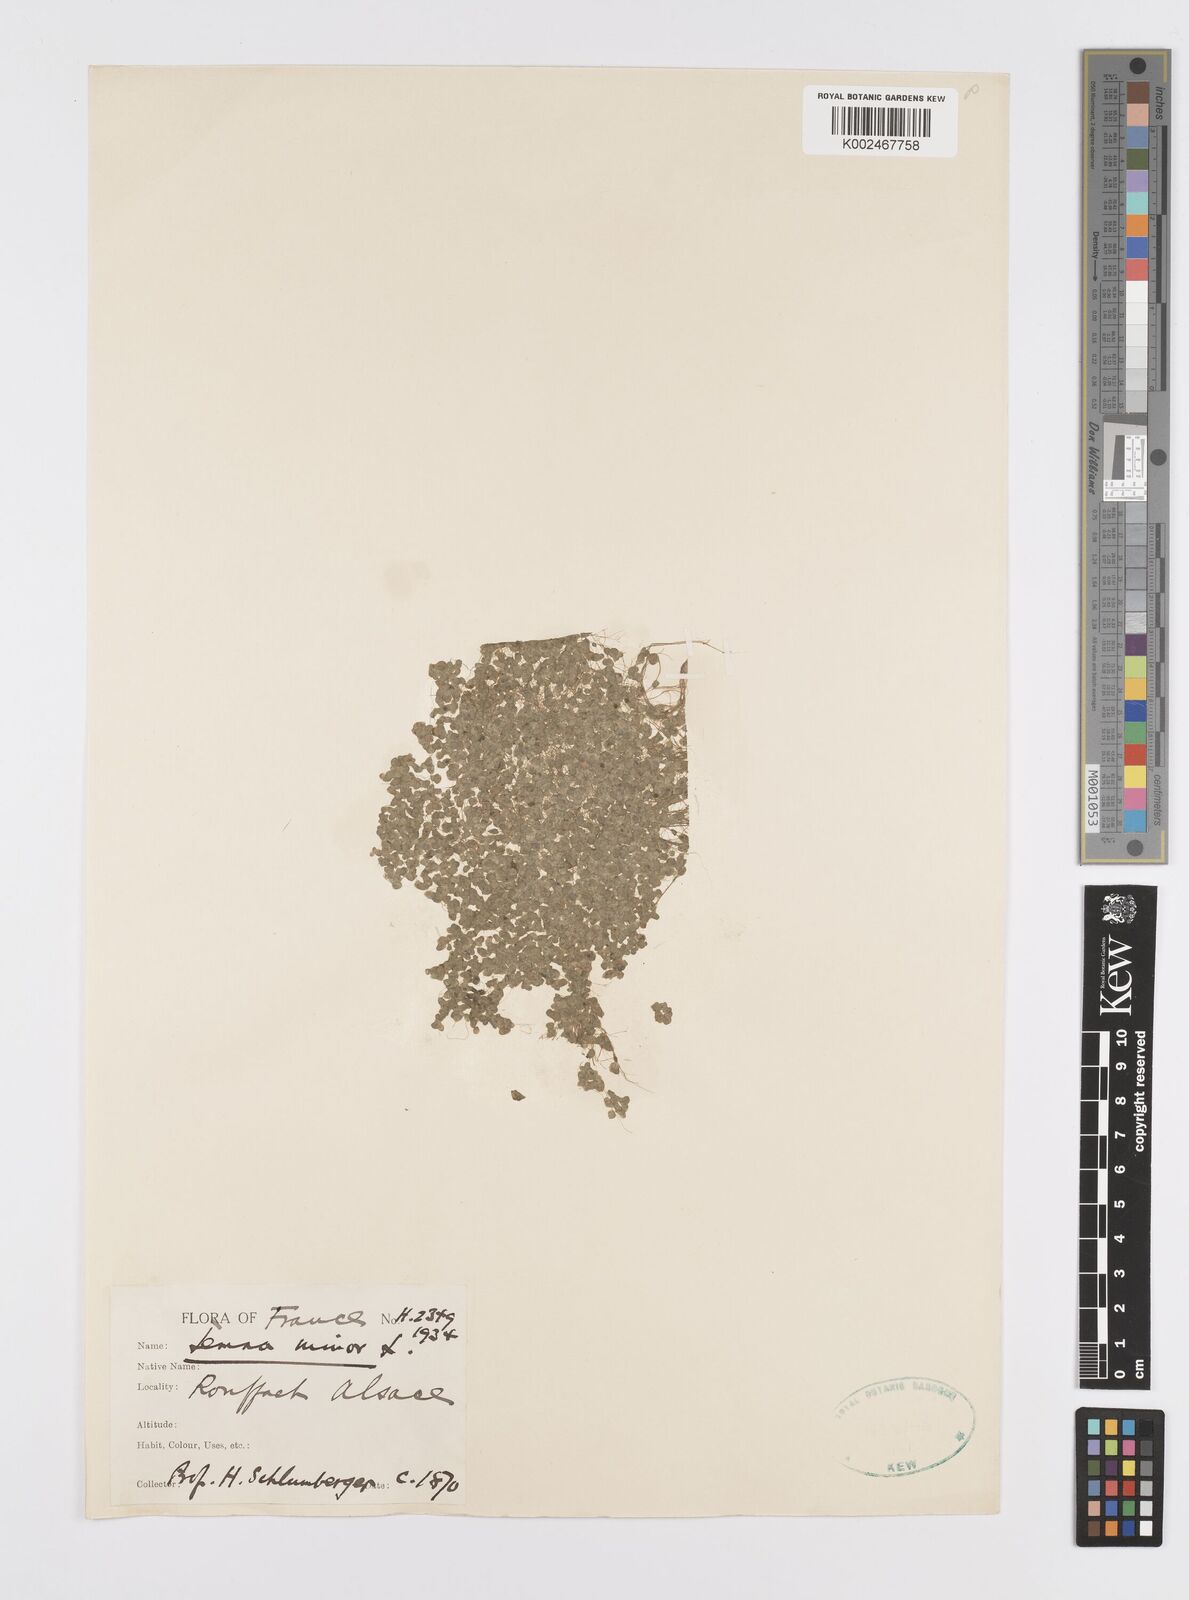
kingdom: Plantae
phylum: Tracheophyta
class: Liliopsida
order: Alismatales
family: Araceae
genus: Lemna
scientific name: Lemna minor
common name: Common duckweed
